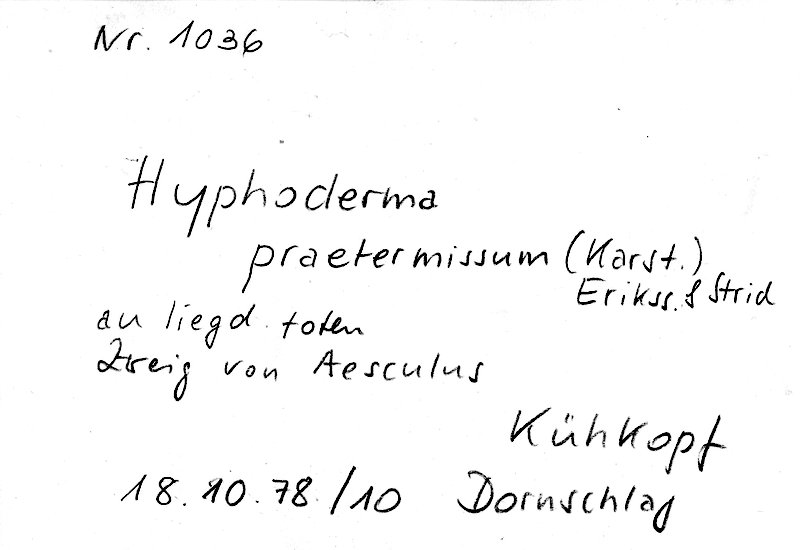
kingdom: Plantae
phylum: Tracheophyta
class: Magnoliopsida
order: Sapindales
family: Sapindaceae
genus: Aesculus
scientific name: Aesculus
